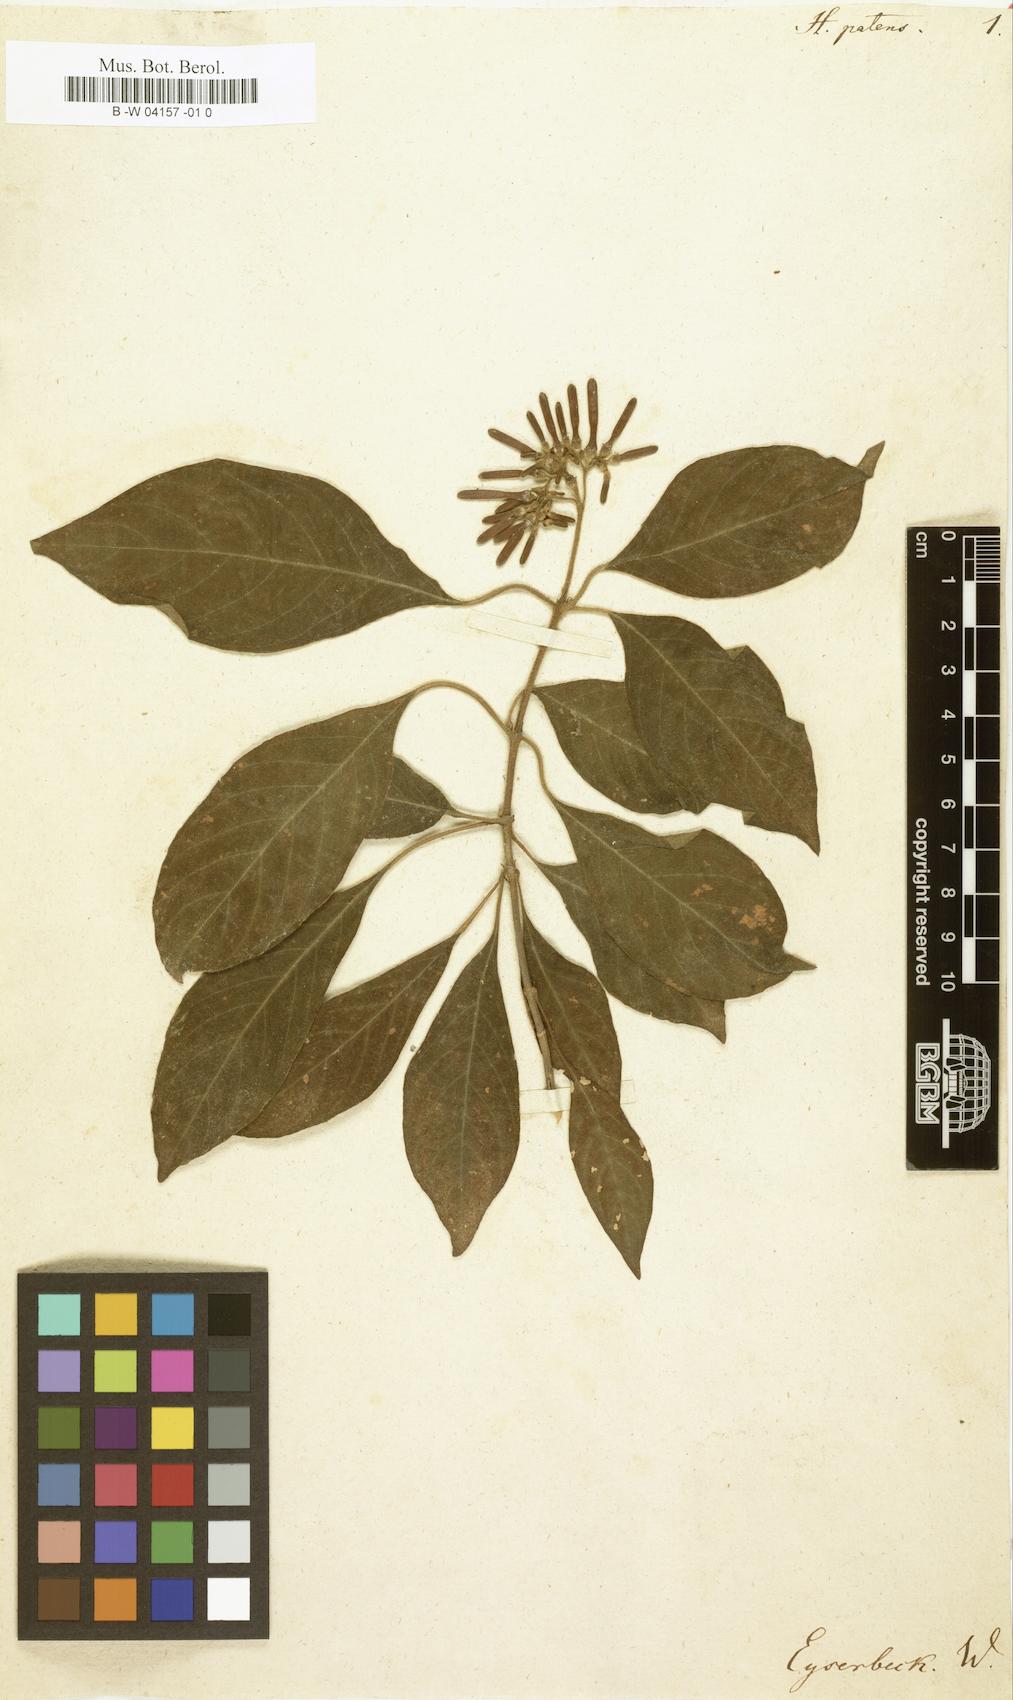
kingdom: Plantae
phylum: Tracheophyta
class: Magnoliopsida
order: Gentianales
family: Rubiaceae
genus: Hamelia
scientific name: Hamelia patens
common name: Redhead
